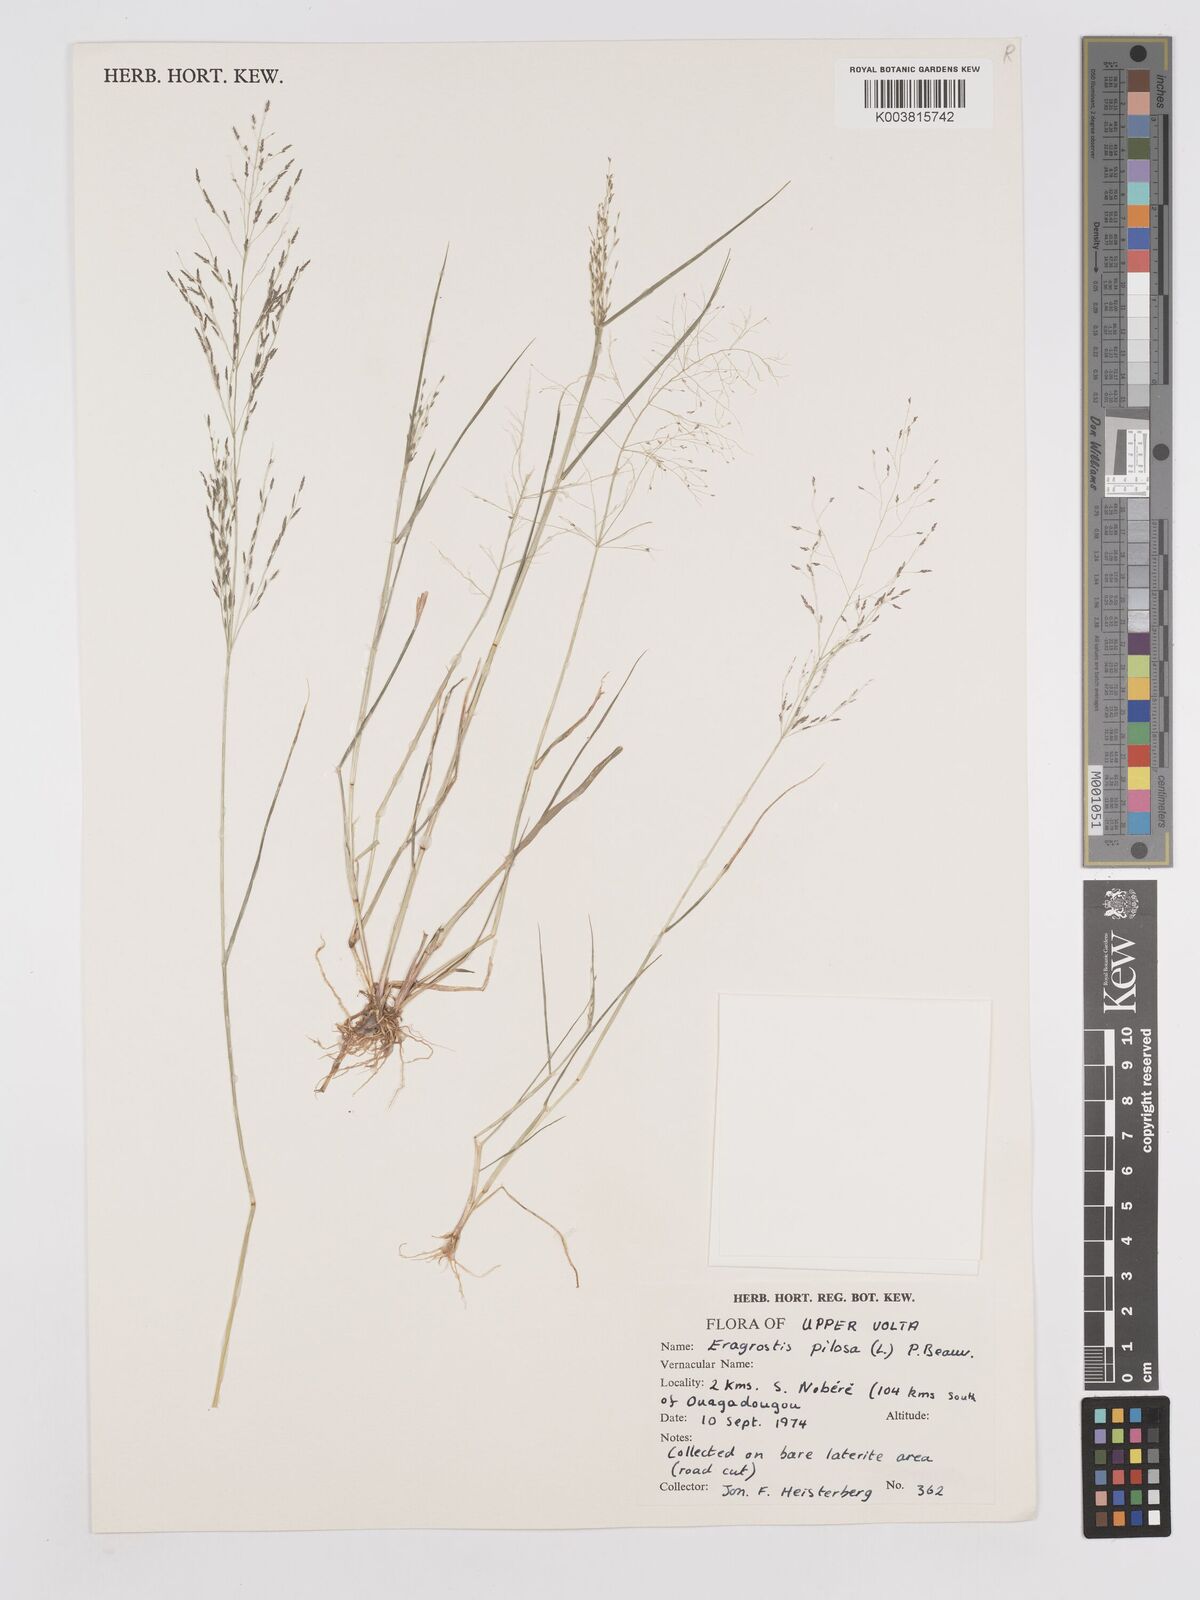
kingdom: Plantae
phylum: Tracheophyta
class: Liliopsida
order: Poales
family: Poaceae
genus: Eragrostis
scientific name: Eragrostis pilosa
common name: Indian lovegrass
